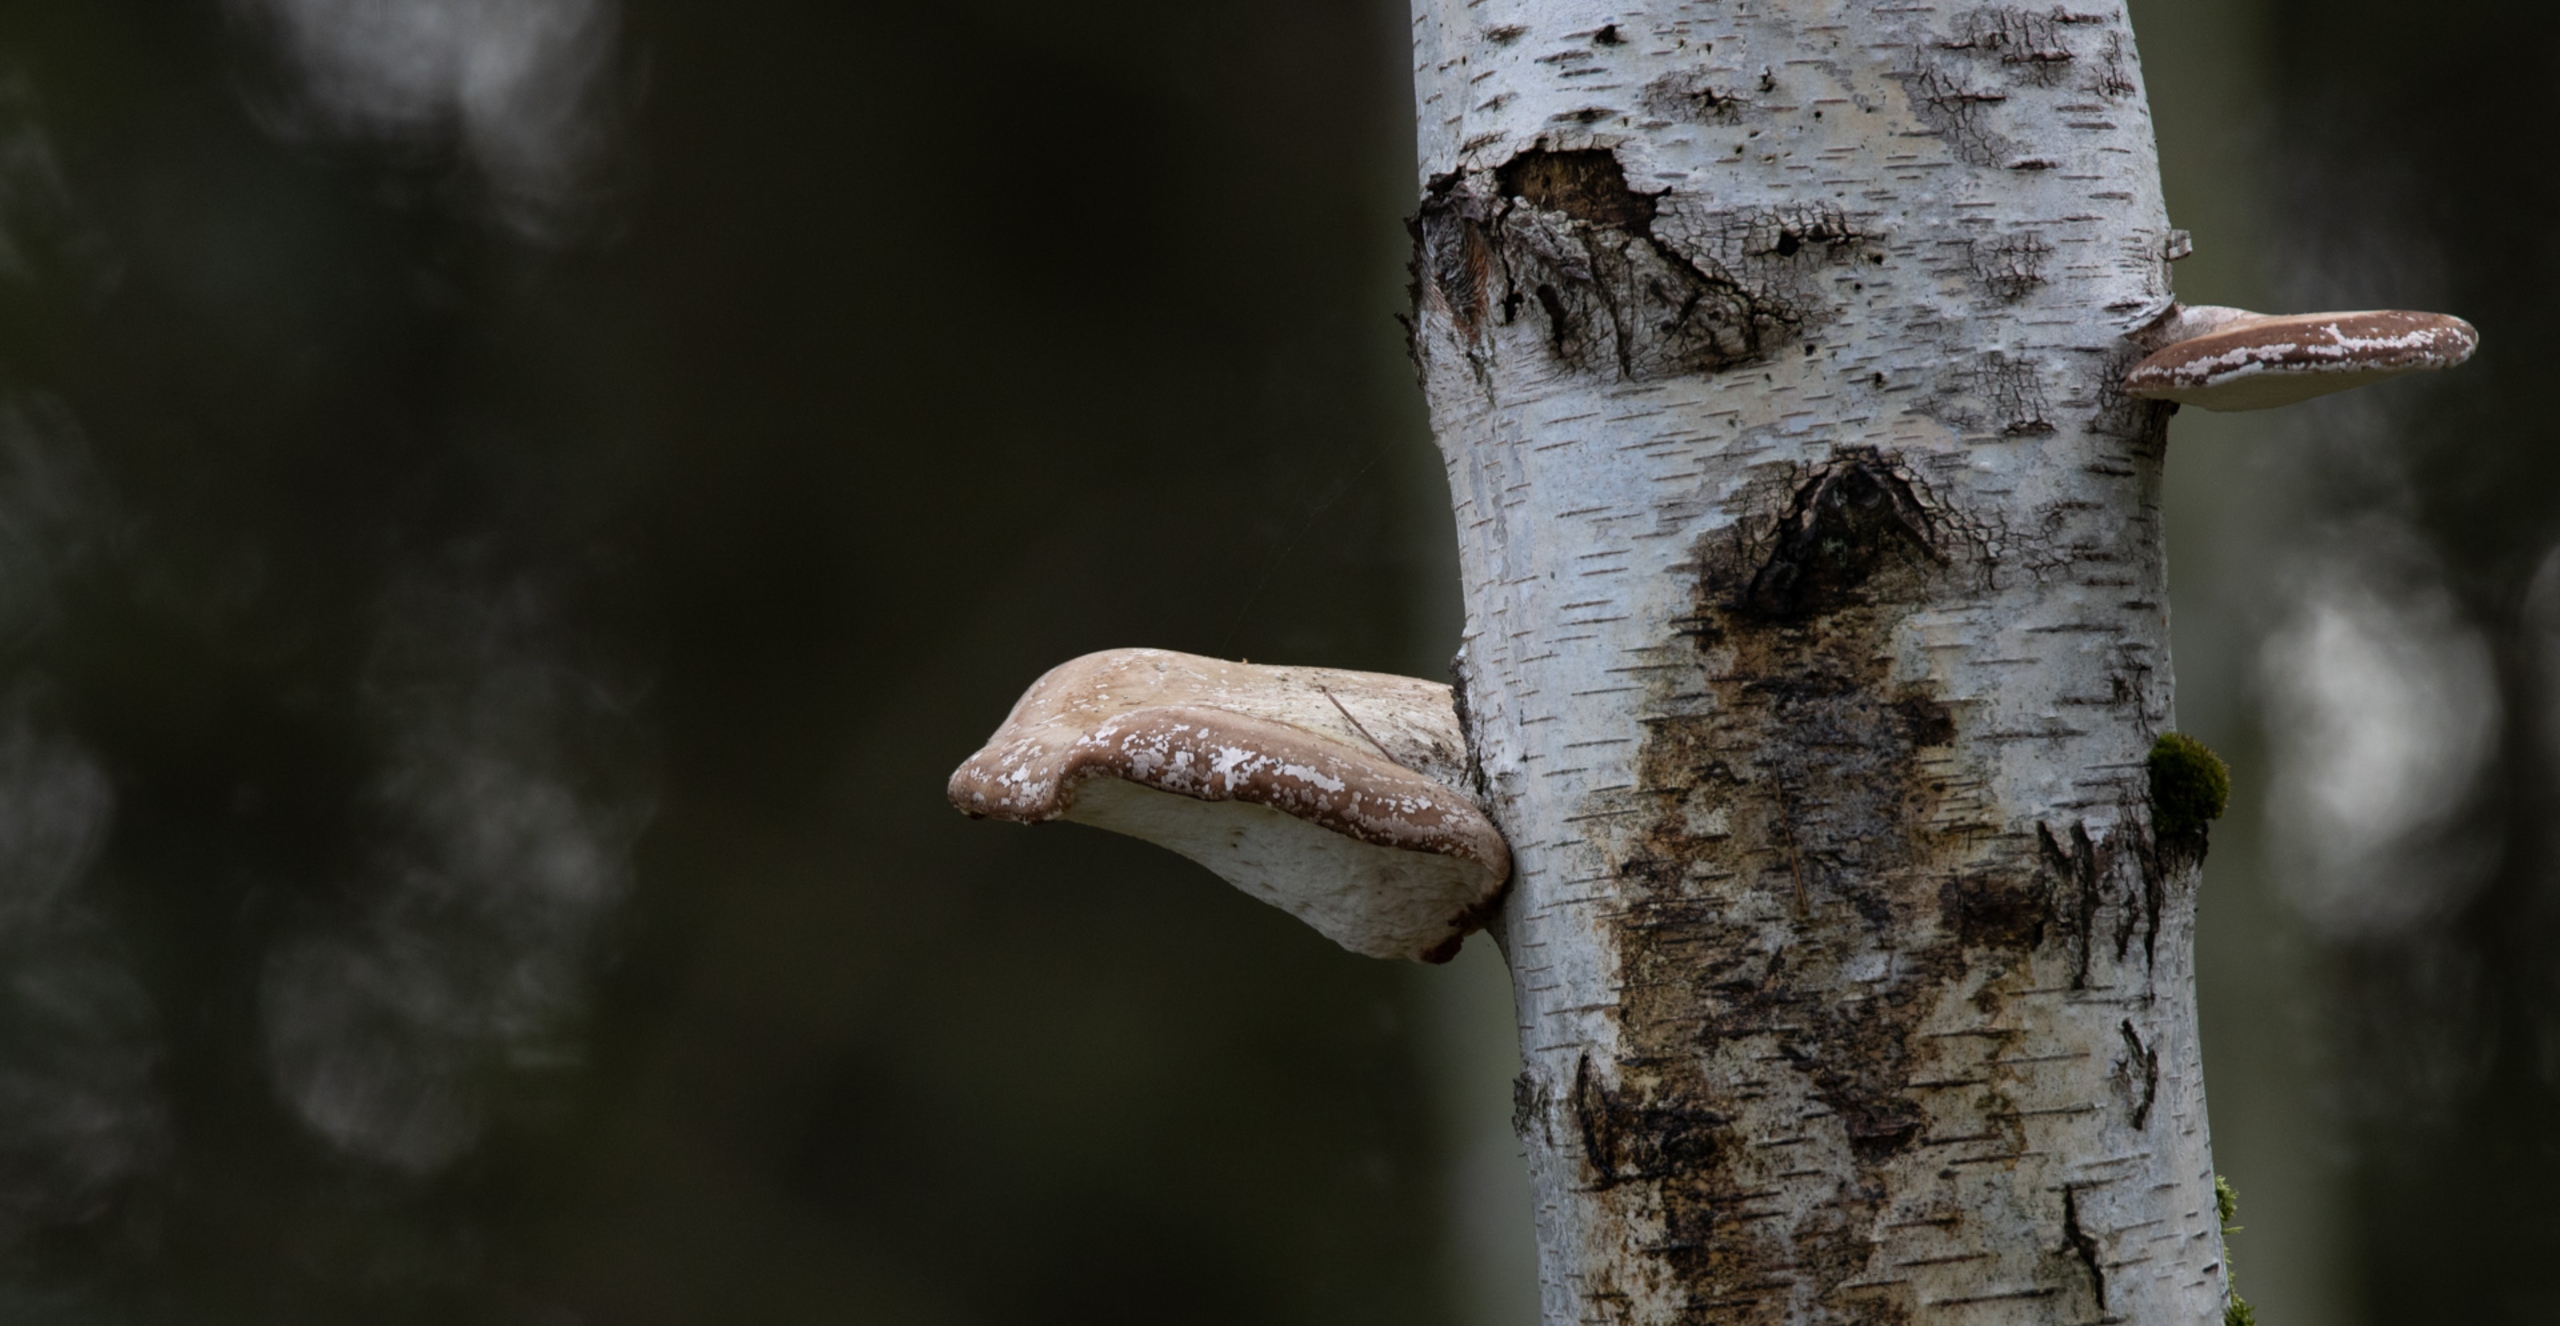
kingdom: Fungi
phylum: Basidiomycota
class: Agaricomycetes
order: Polyporales
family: Fomitopsidaceae
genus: Fomitopsis
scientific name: Fomitopsis betulina
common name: Birkeporesvamp
